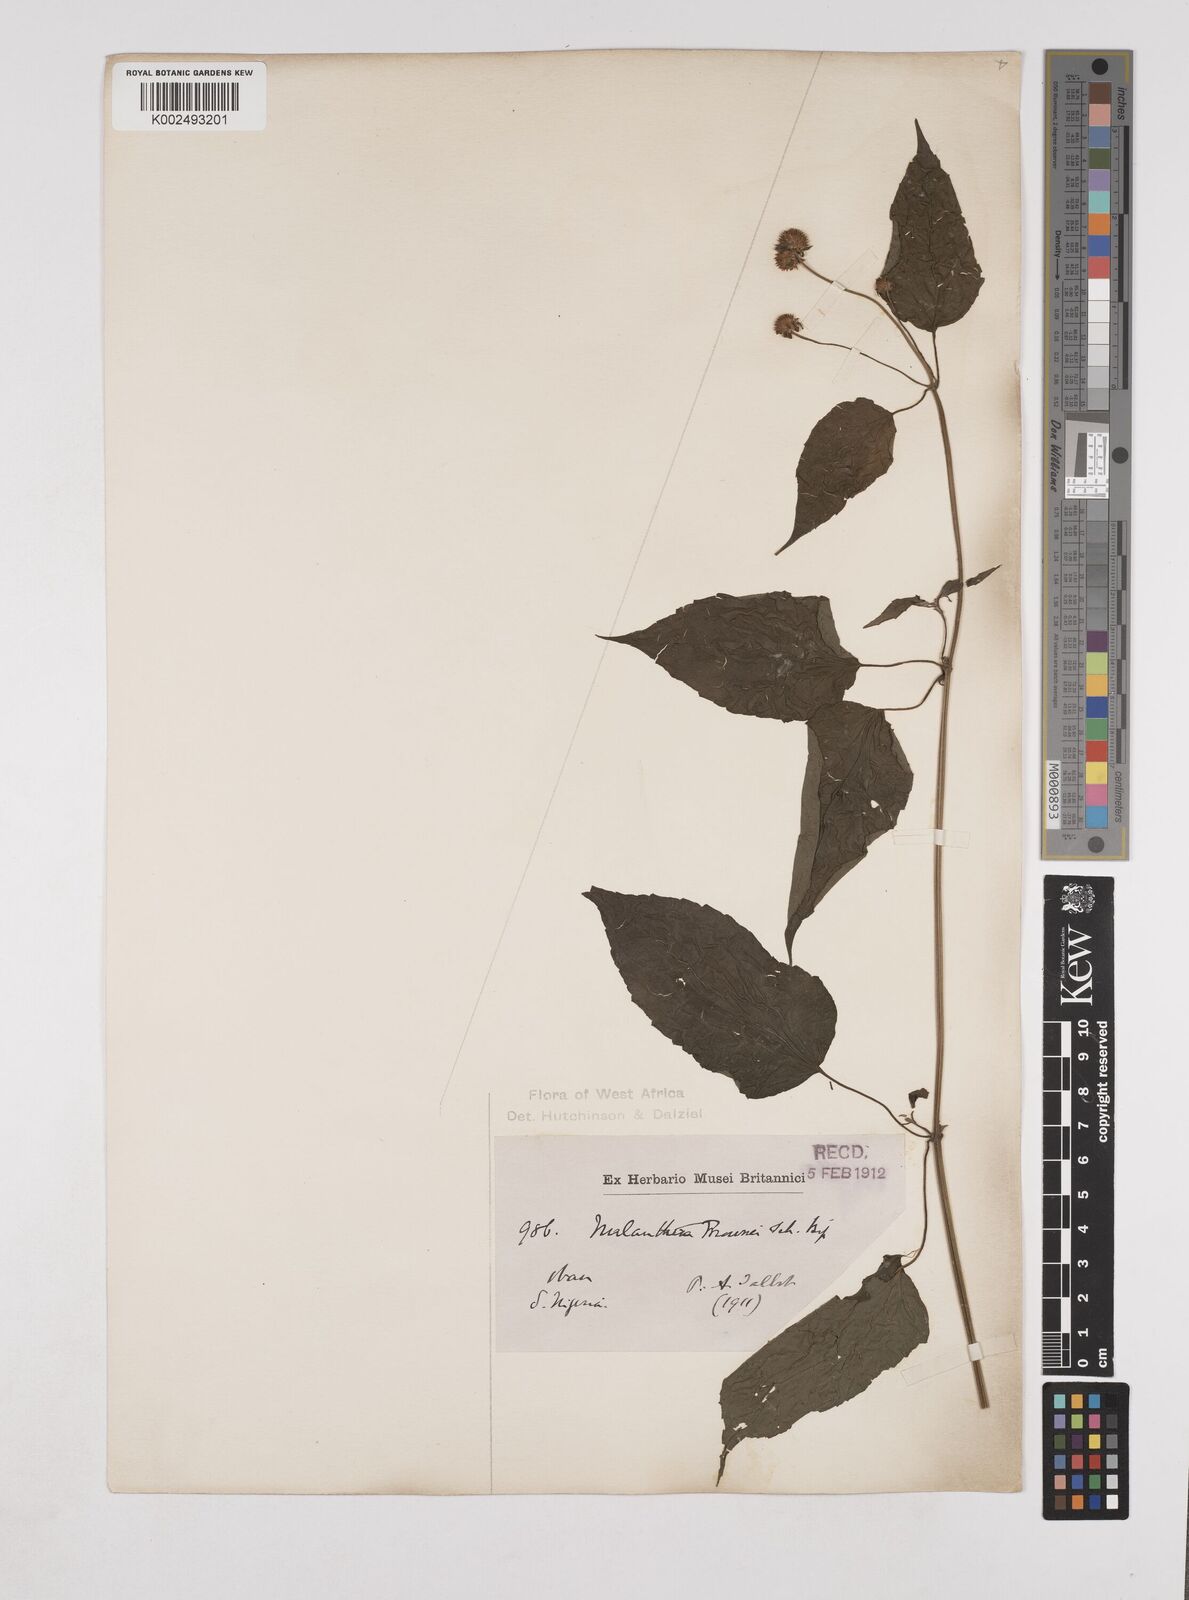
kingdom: Plantae
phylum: Tracheophyta
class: Magnoliopsida
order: Asterales
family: Asteraceae
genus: Lipotriche
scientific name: Lipotriche scandens
